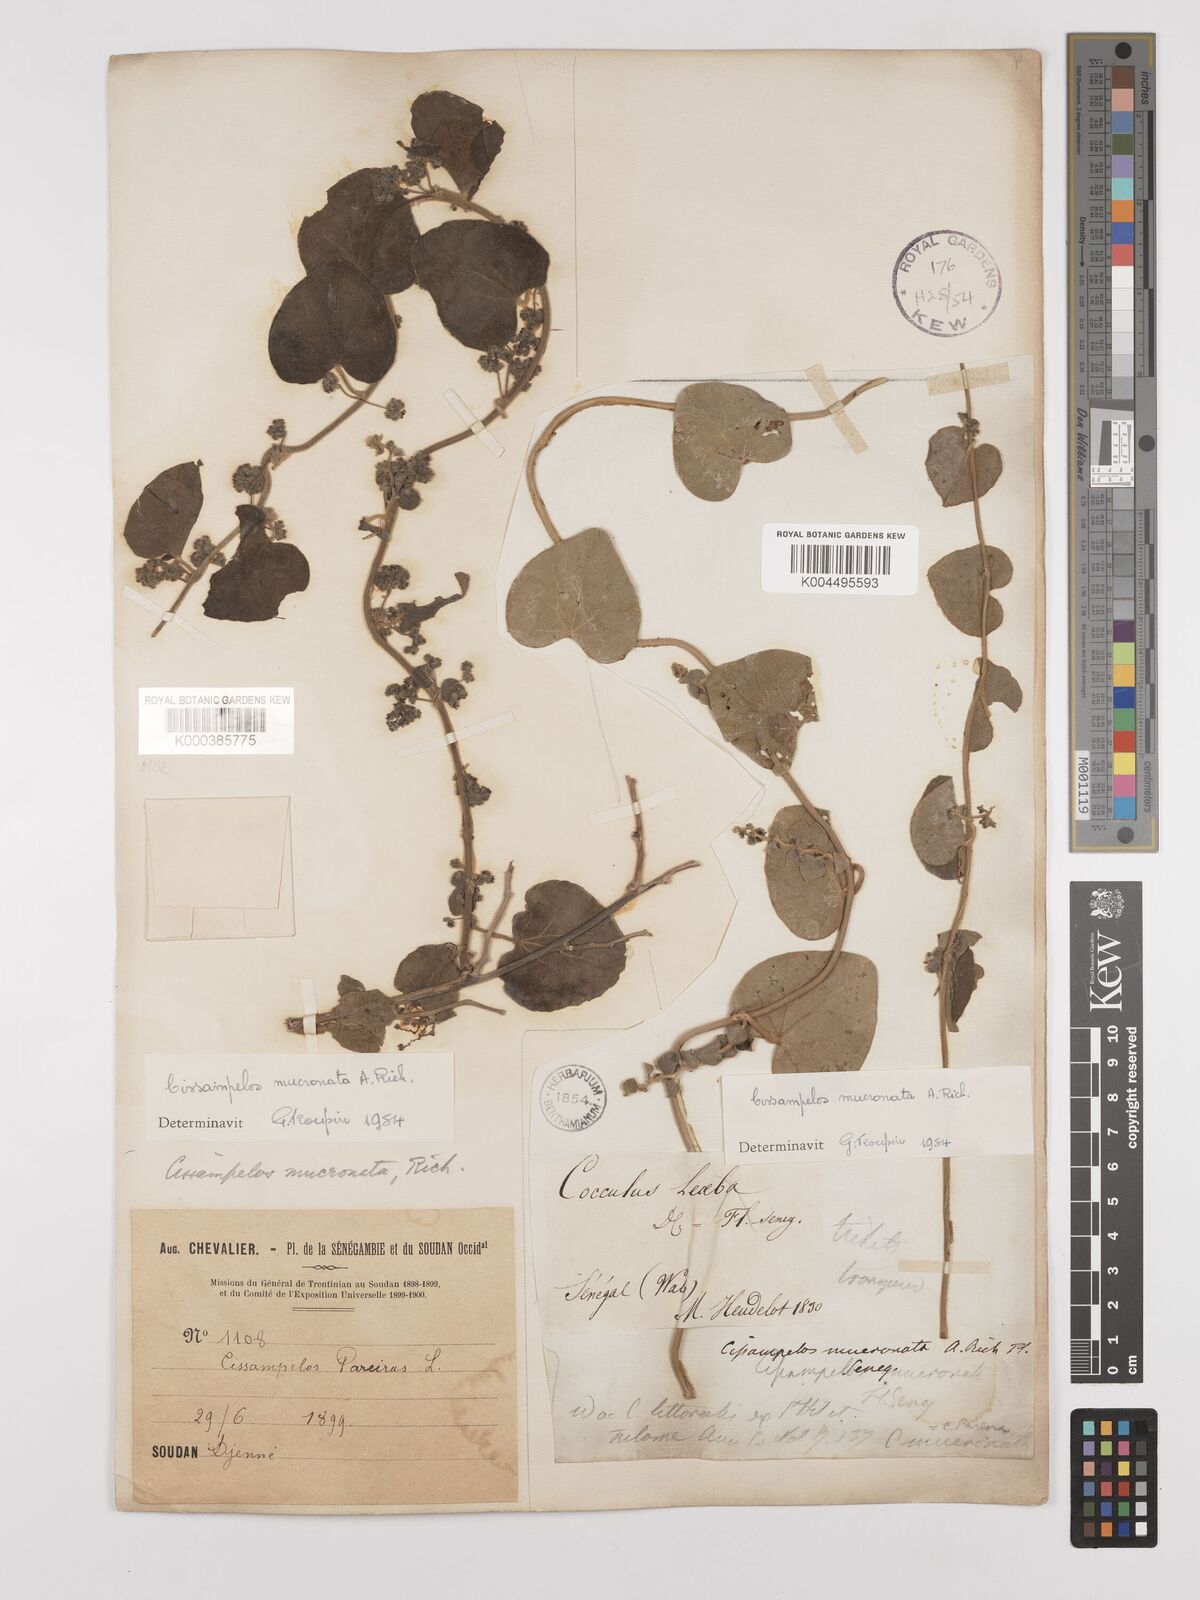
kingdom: Plantae
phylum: Tracheophyta
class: Magnoliopsida
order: Ranunculales
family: Menispermaceae
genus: Cissampelos
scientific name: Cissampelos mucronata
